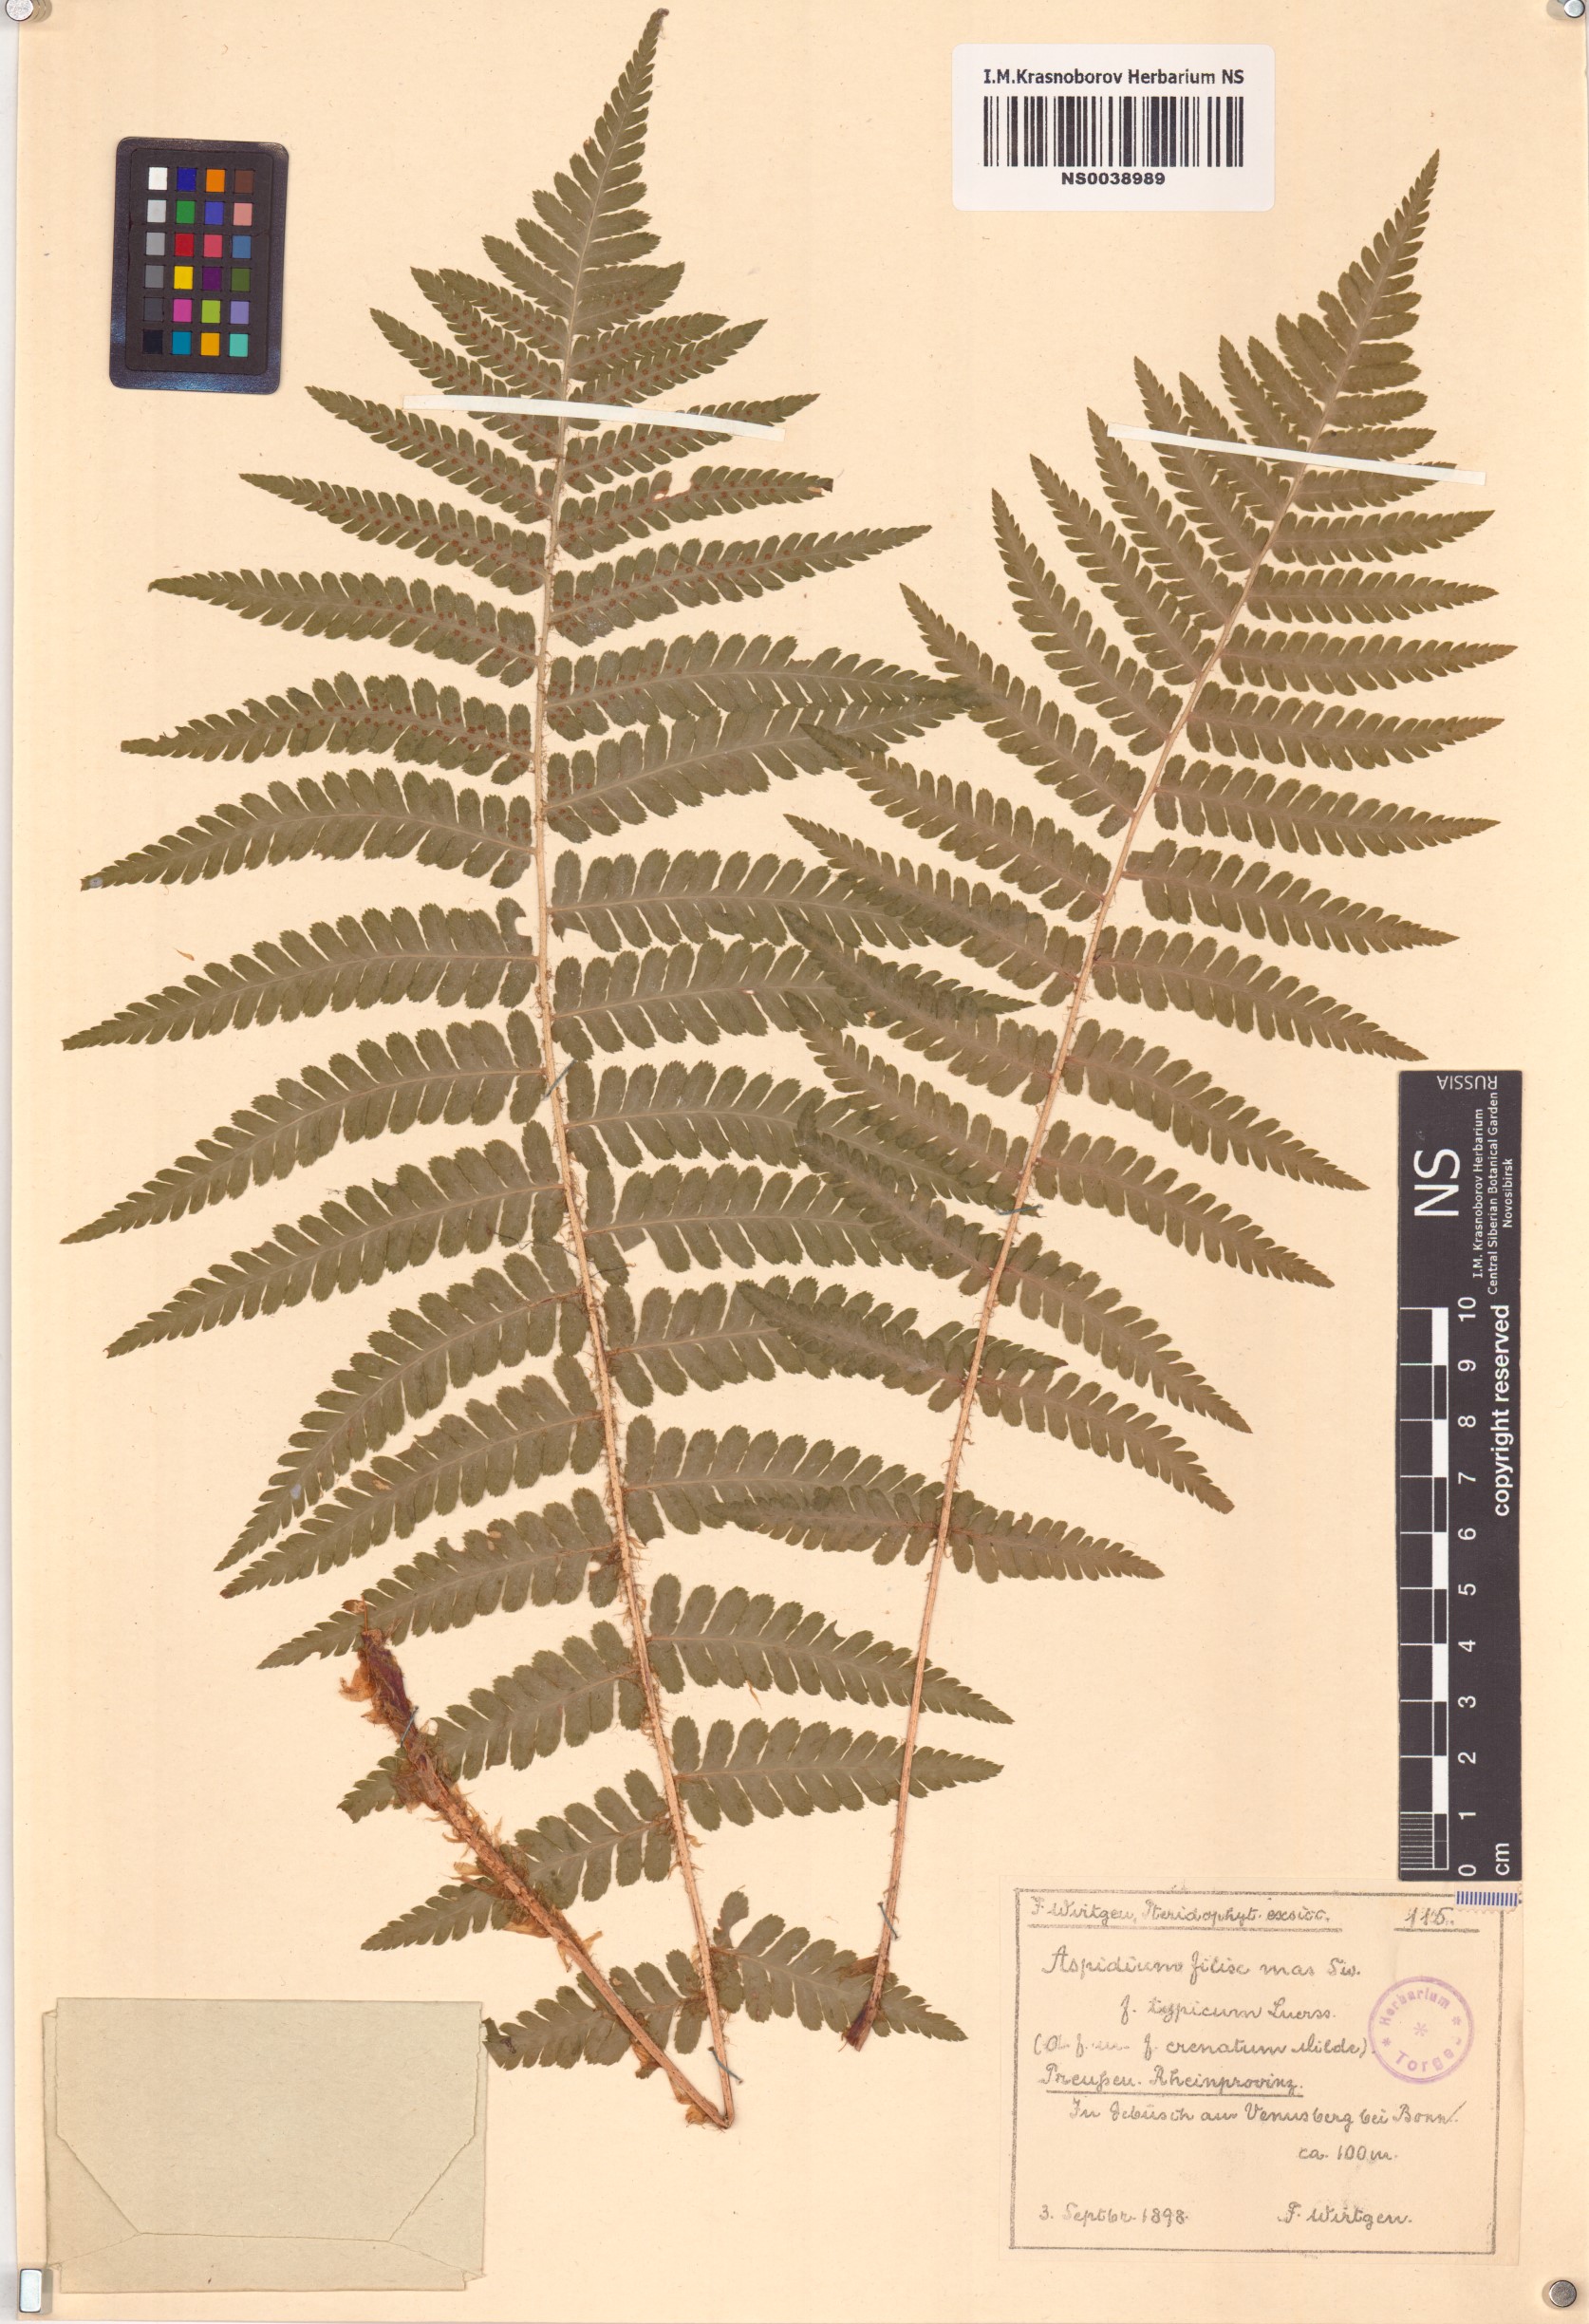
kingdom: Plantae
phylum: Tracheophyta
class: Polypodiopsida
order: Polypodiales
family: Dryopteridaceae
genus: Dryopteris
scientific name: Dryopteris filix-mas
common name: Male fern
